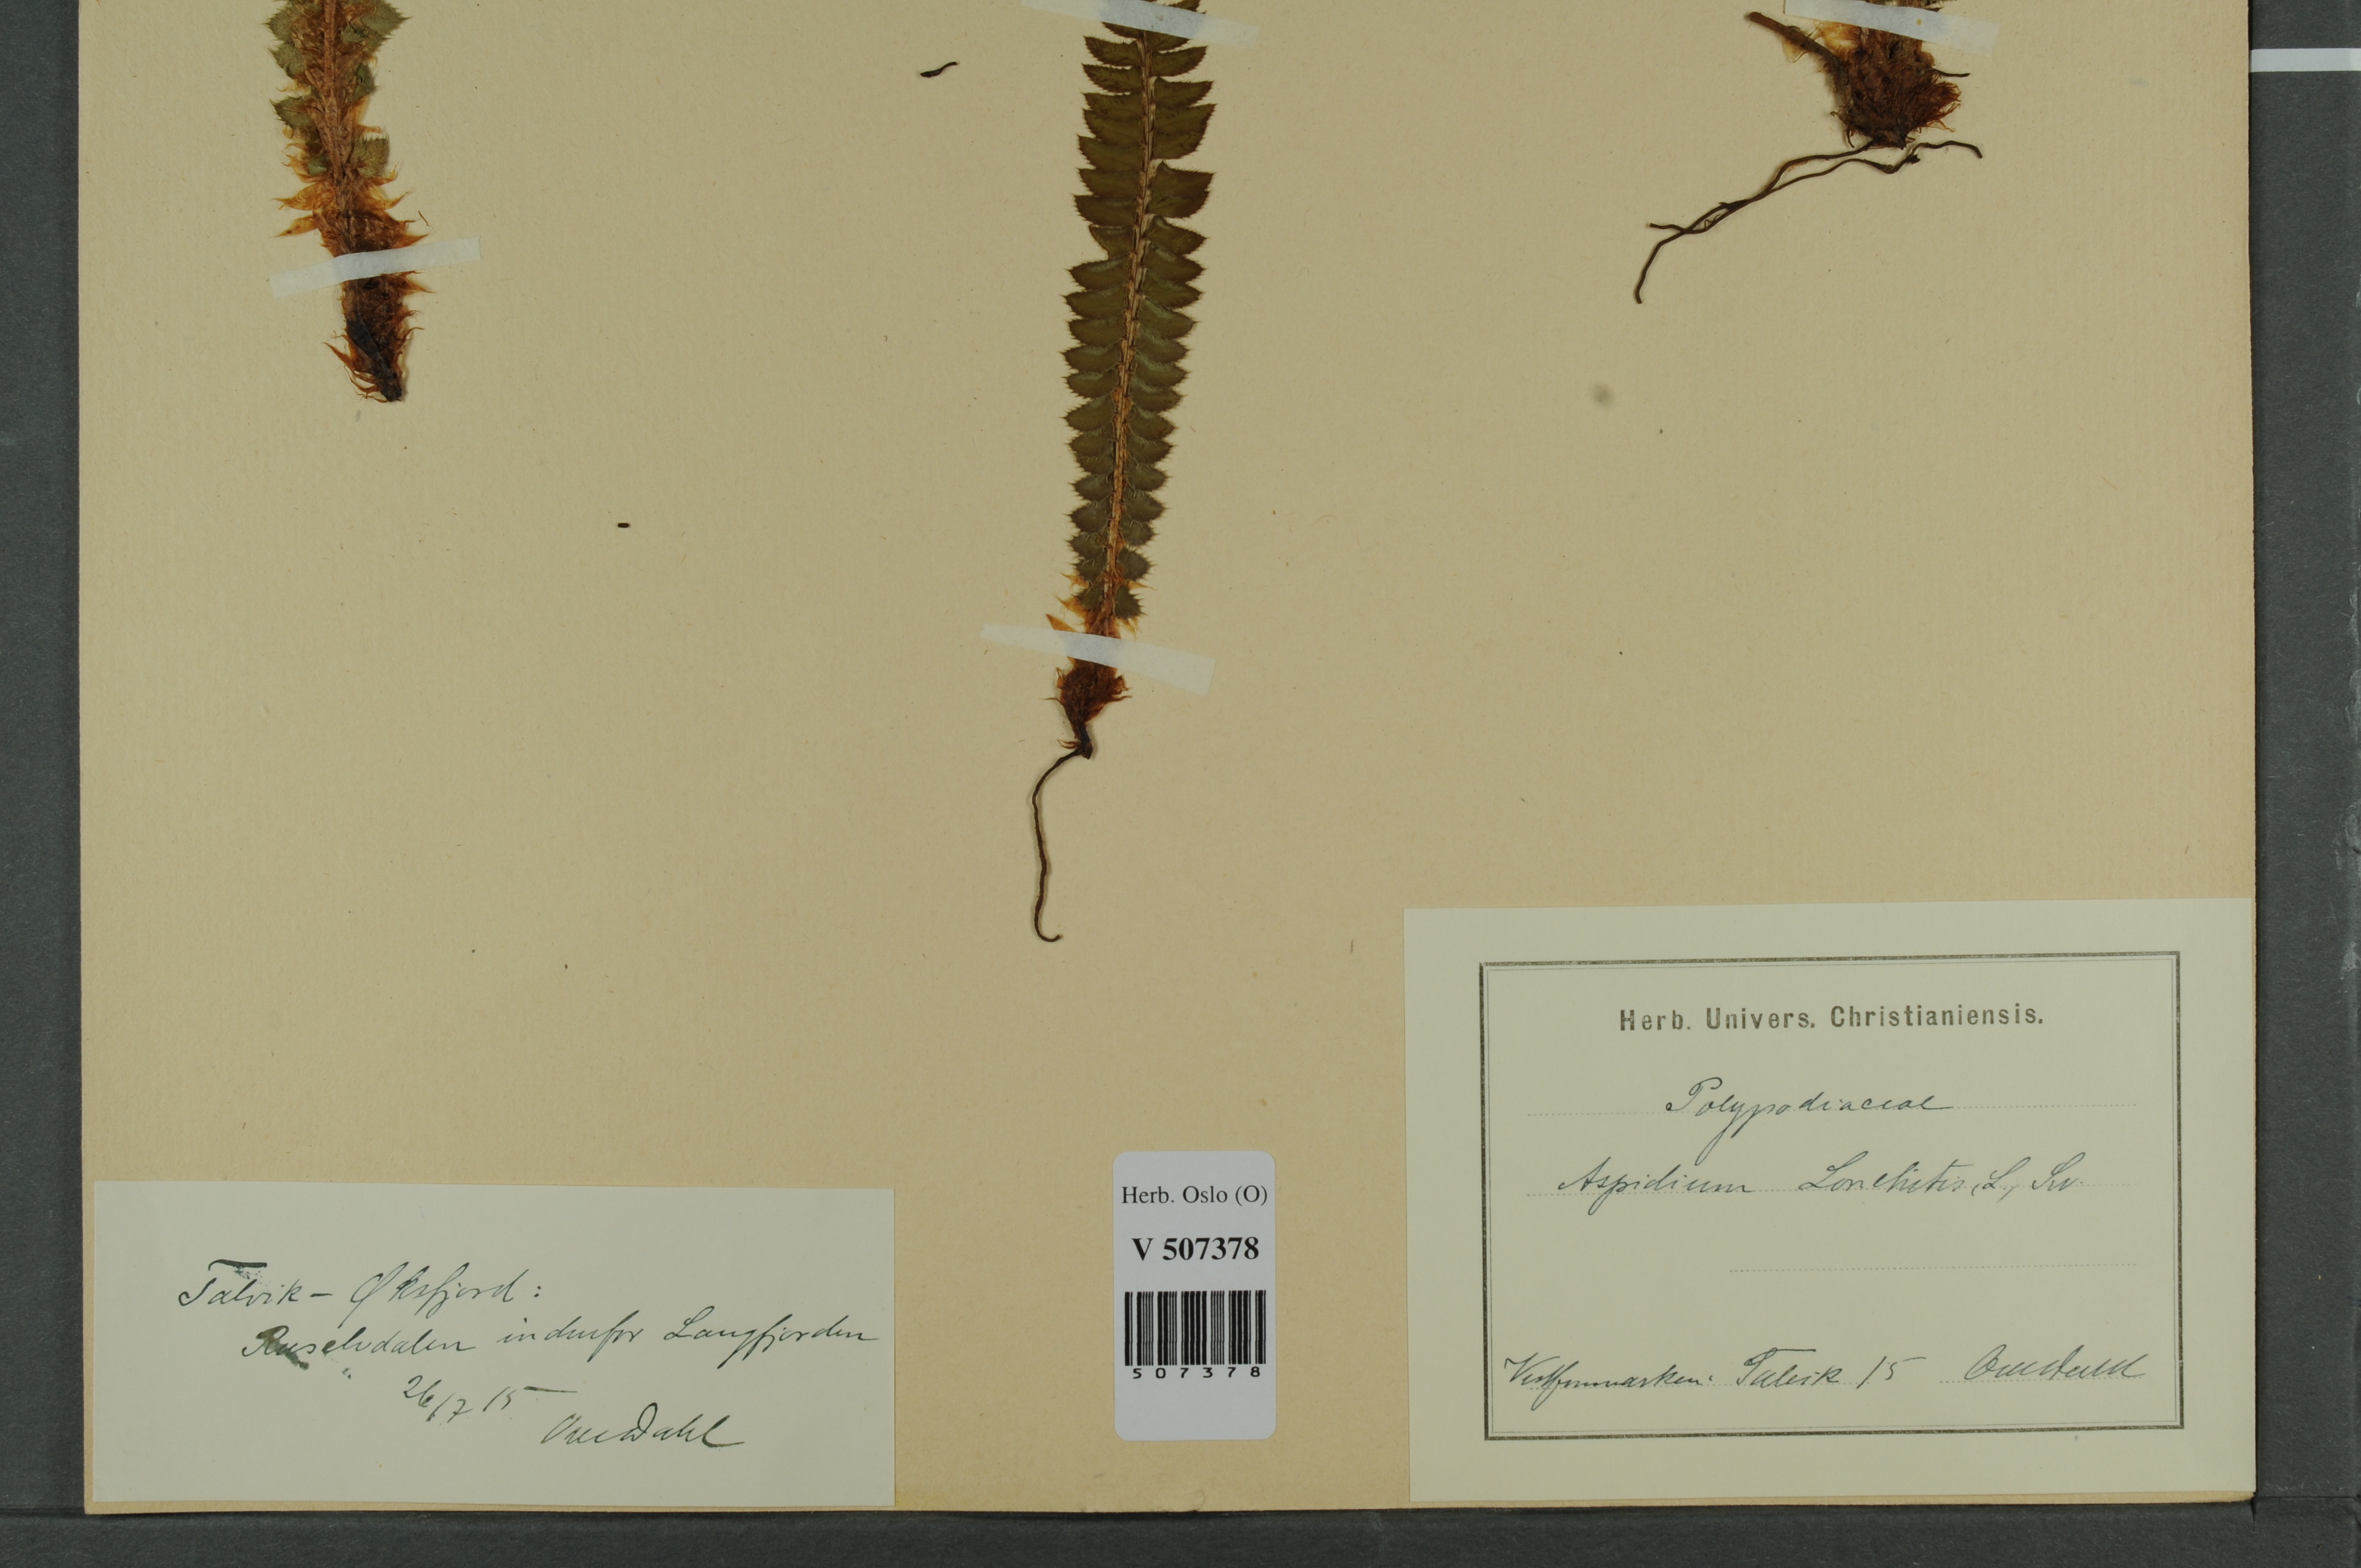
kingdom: Plantae
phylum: Tracheophyta
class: Polypodiopsida
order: Polypodiales
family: Dryopteridaceae
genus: Polystichum
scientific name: Polystichum lonchitis
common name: Holly fern
